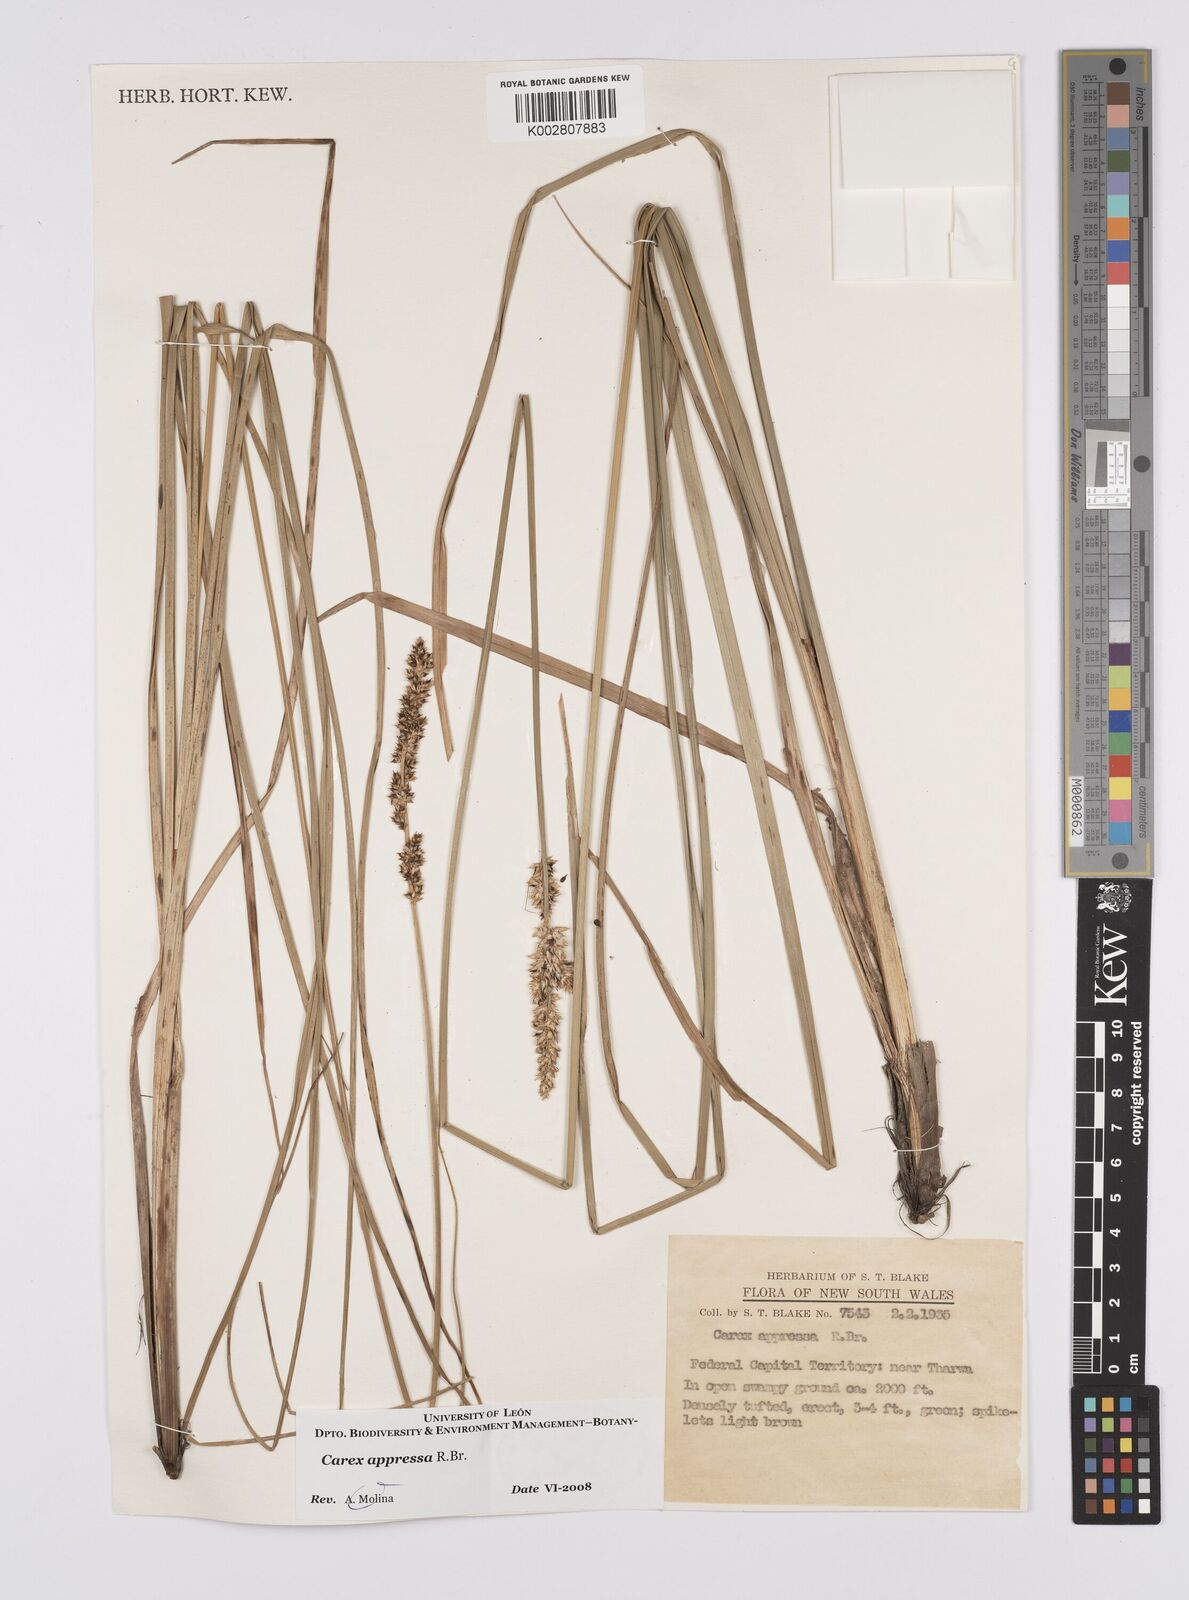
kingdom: Plantae
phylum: Tracheophyta
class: Liliopsida
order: Poales
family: Cyperaceae
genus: Carex
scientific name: Carex appressa
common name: Tussock sedge
